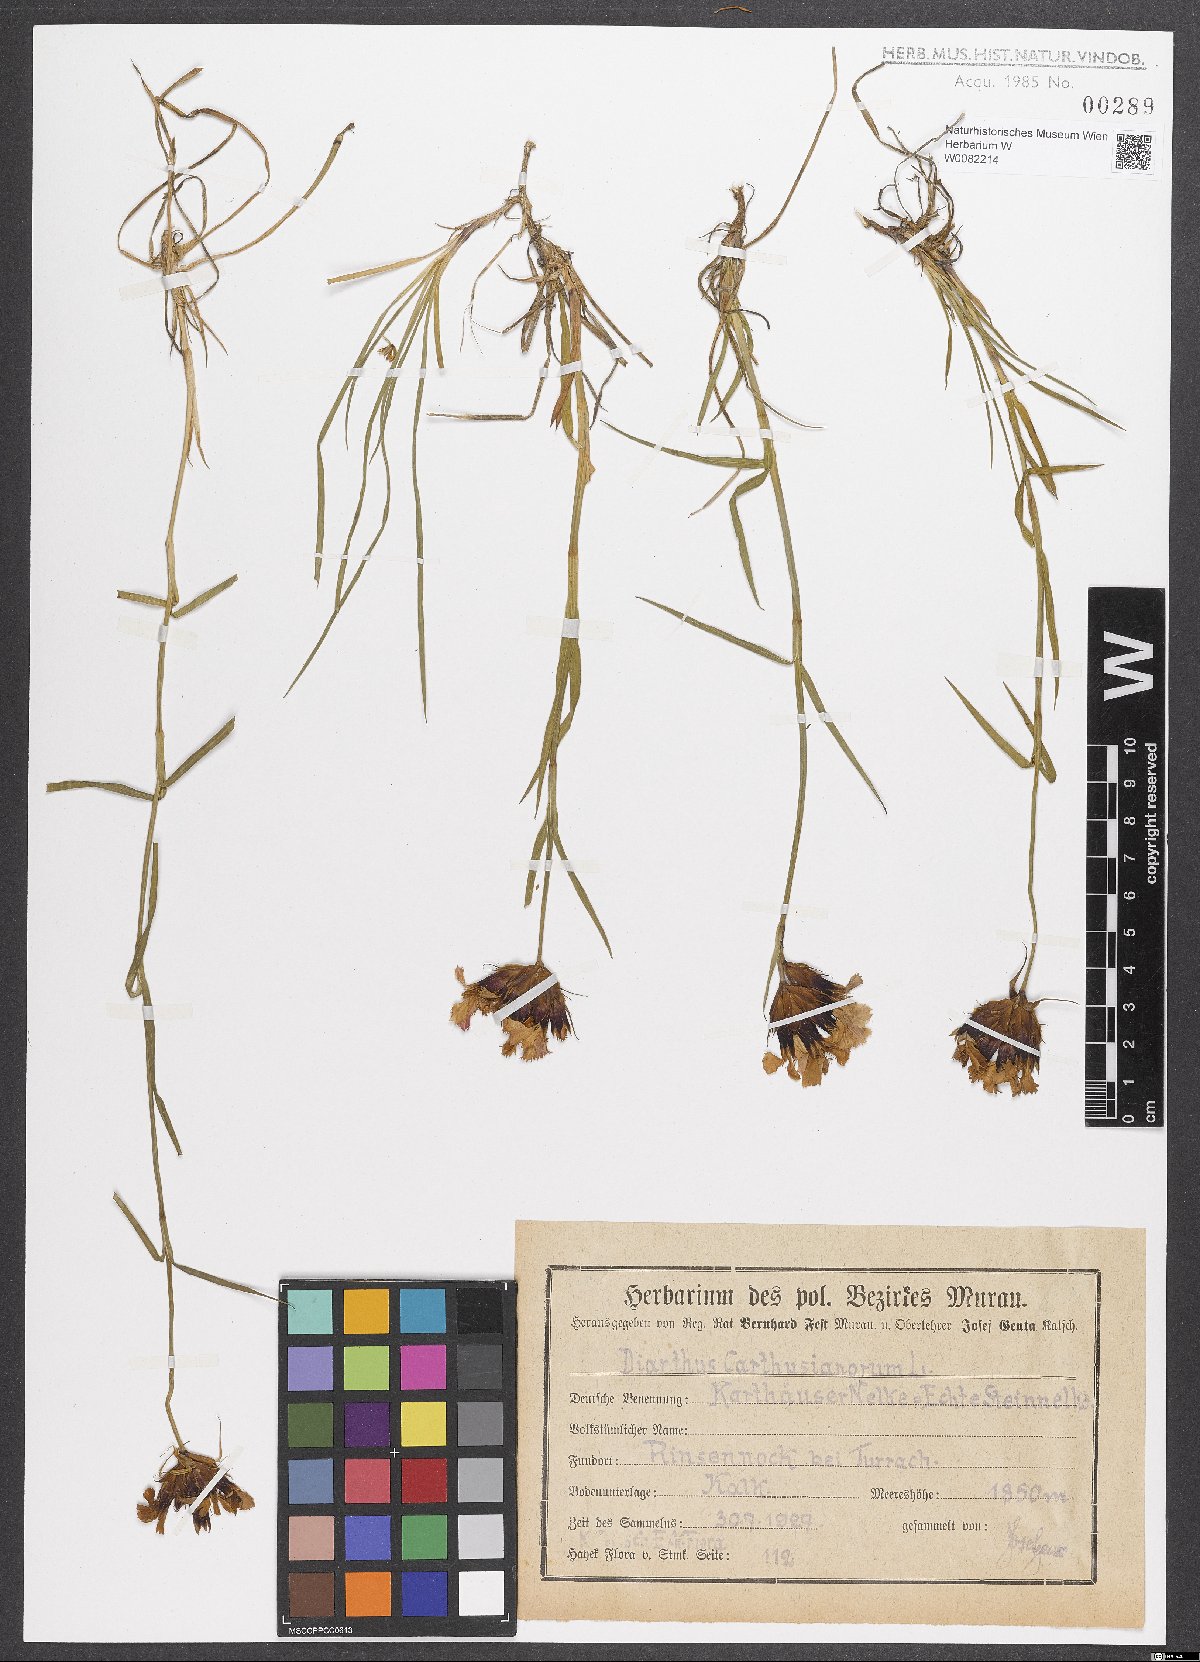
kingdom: Plantae
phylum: Tracheophyta
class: Magnoliopsida
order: Caryophyllales
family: Caryophyllaceae
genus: Dianthus
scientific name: Dianthus carthusianorum
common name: Carthusian pink
